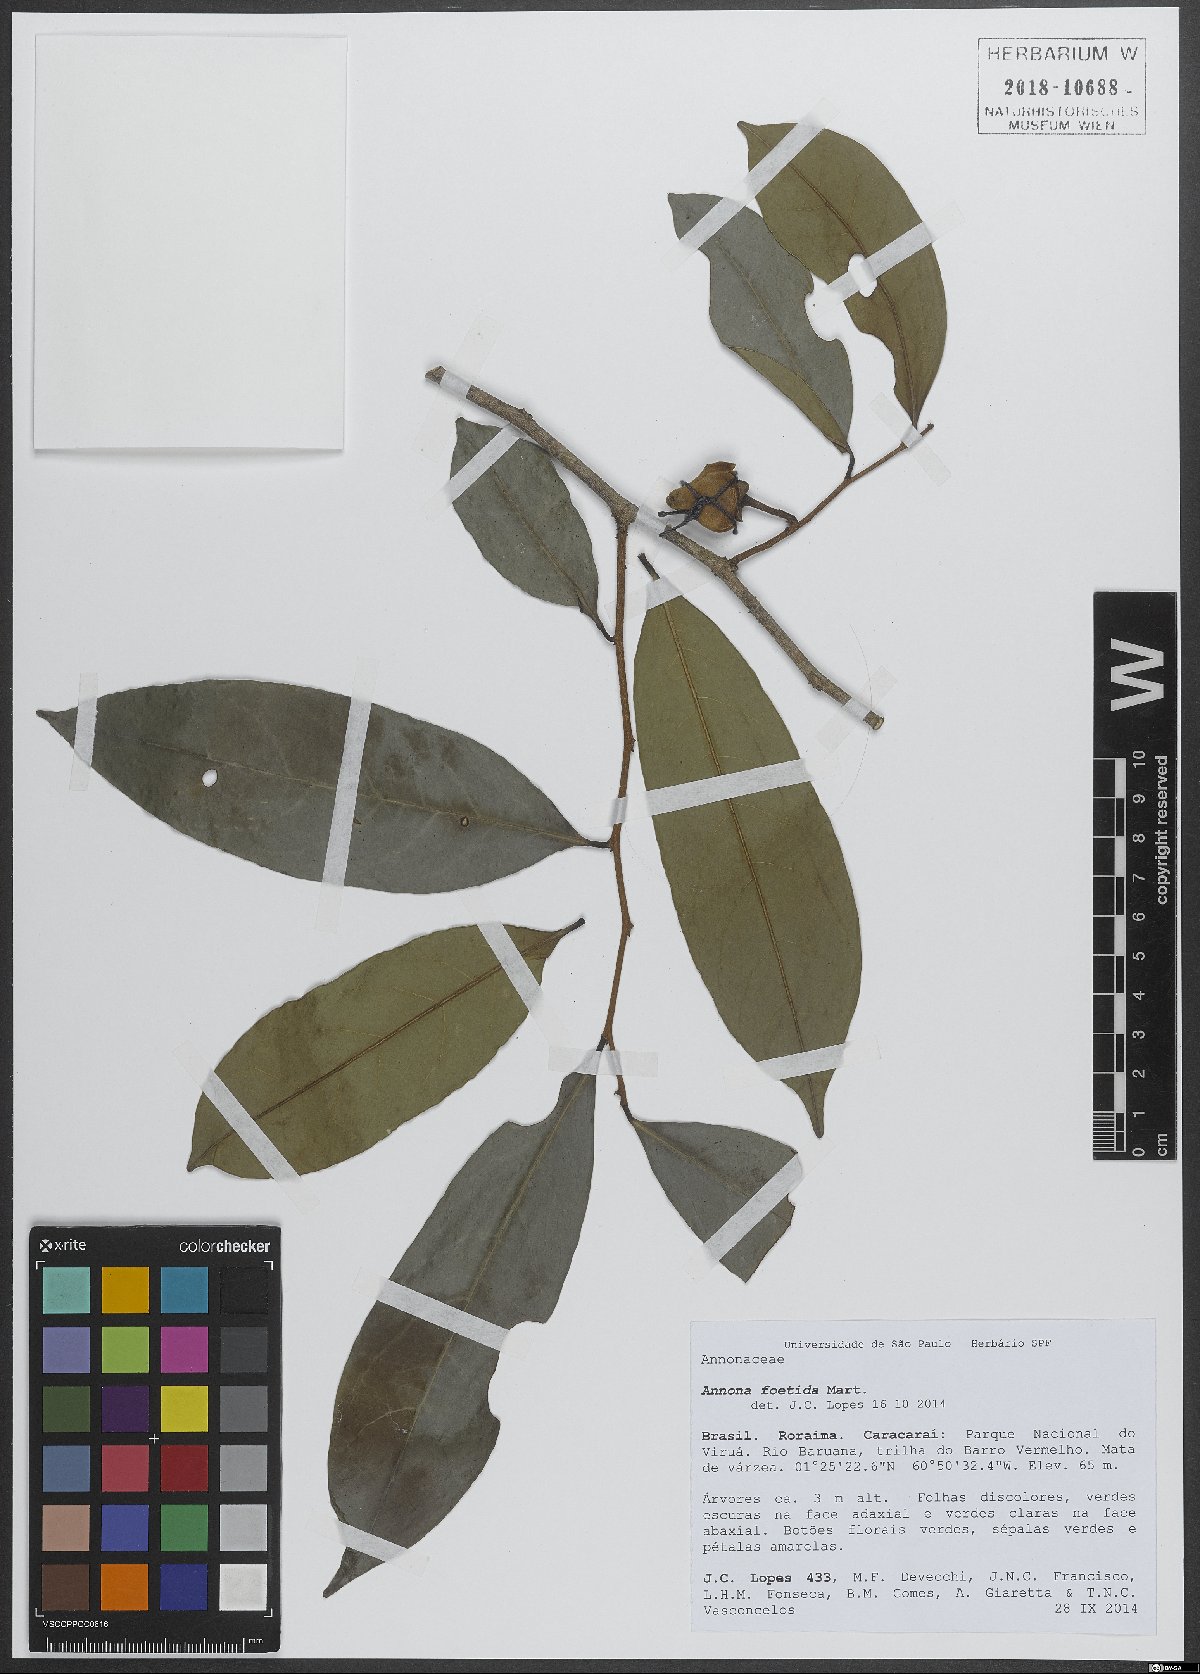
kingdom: Plantae
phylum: Tracheophyta
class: Magnoliopsida
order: Magnoliales
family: Annonaceae
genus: Annona
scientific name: Annona foetida
